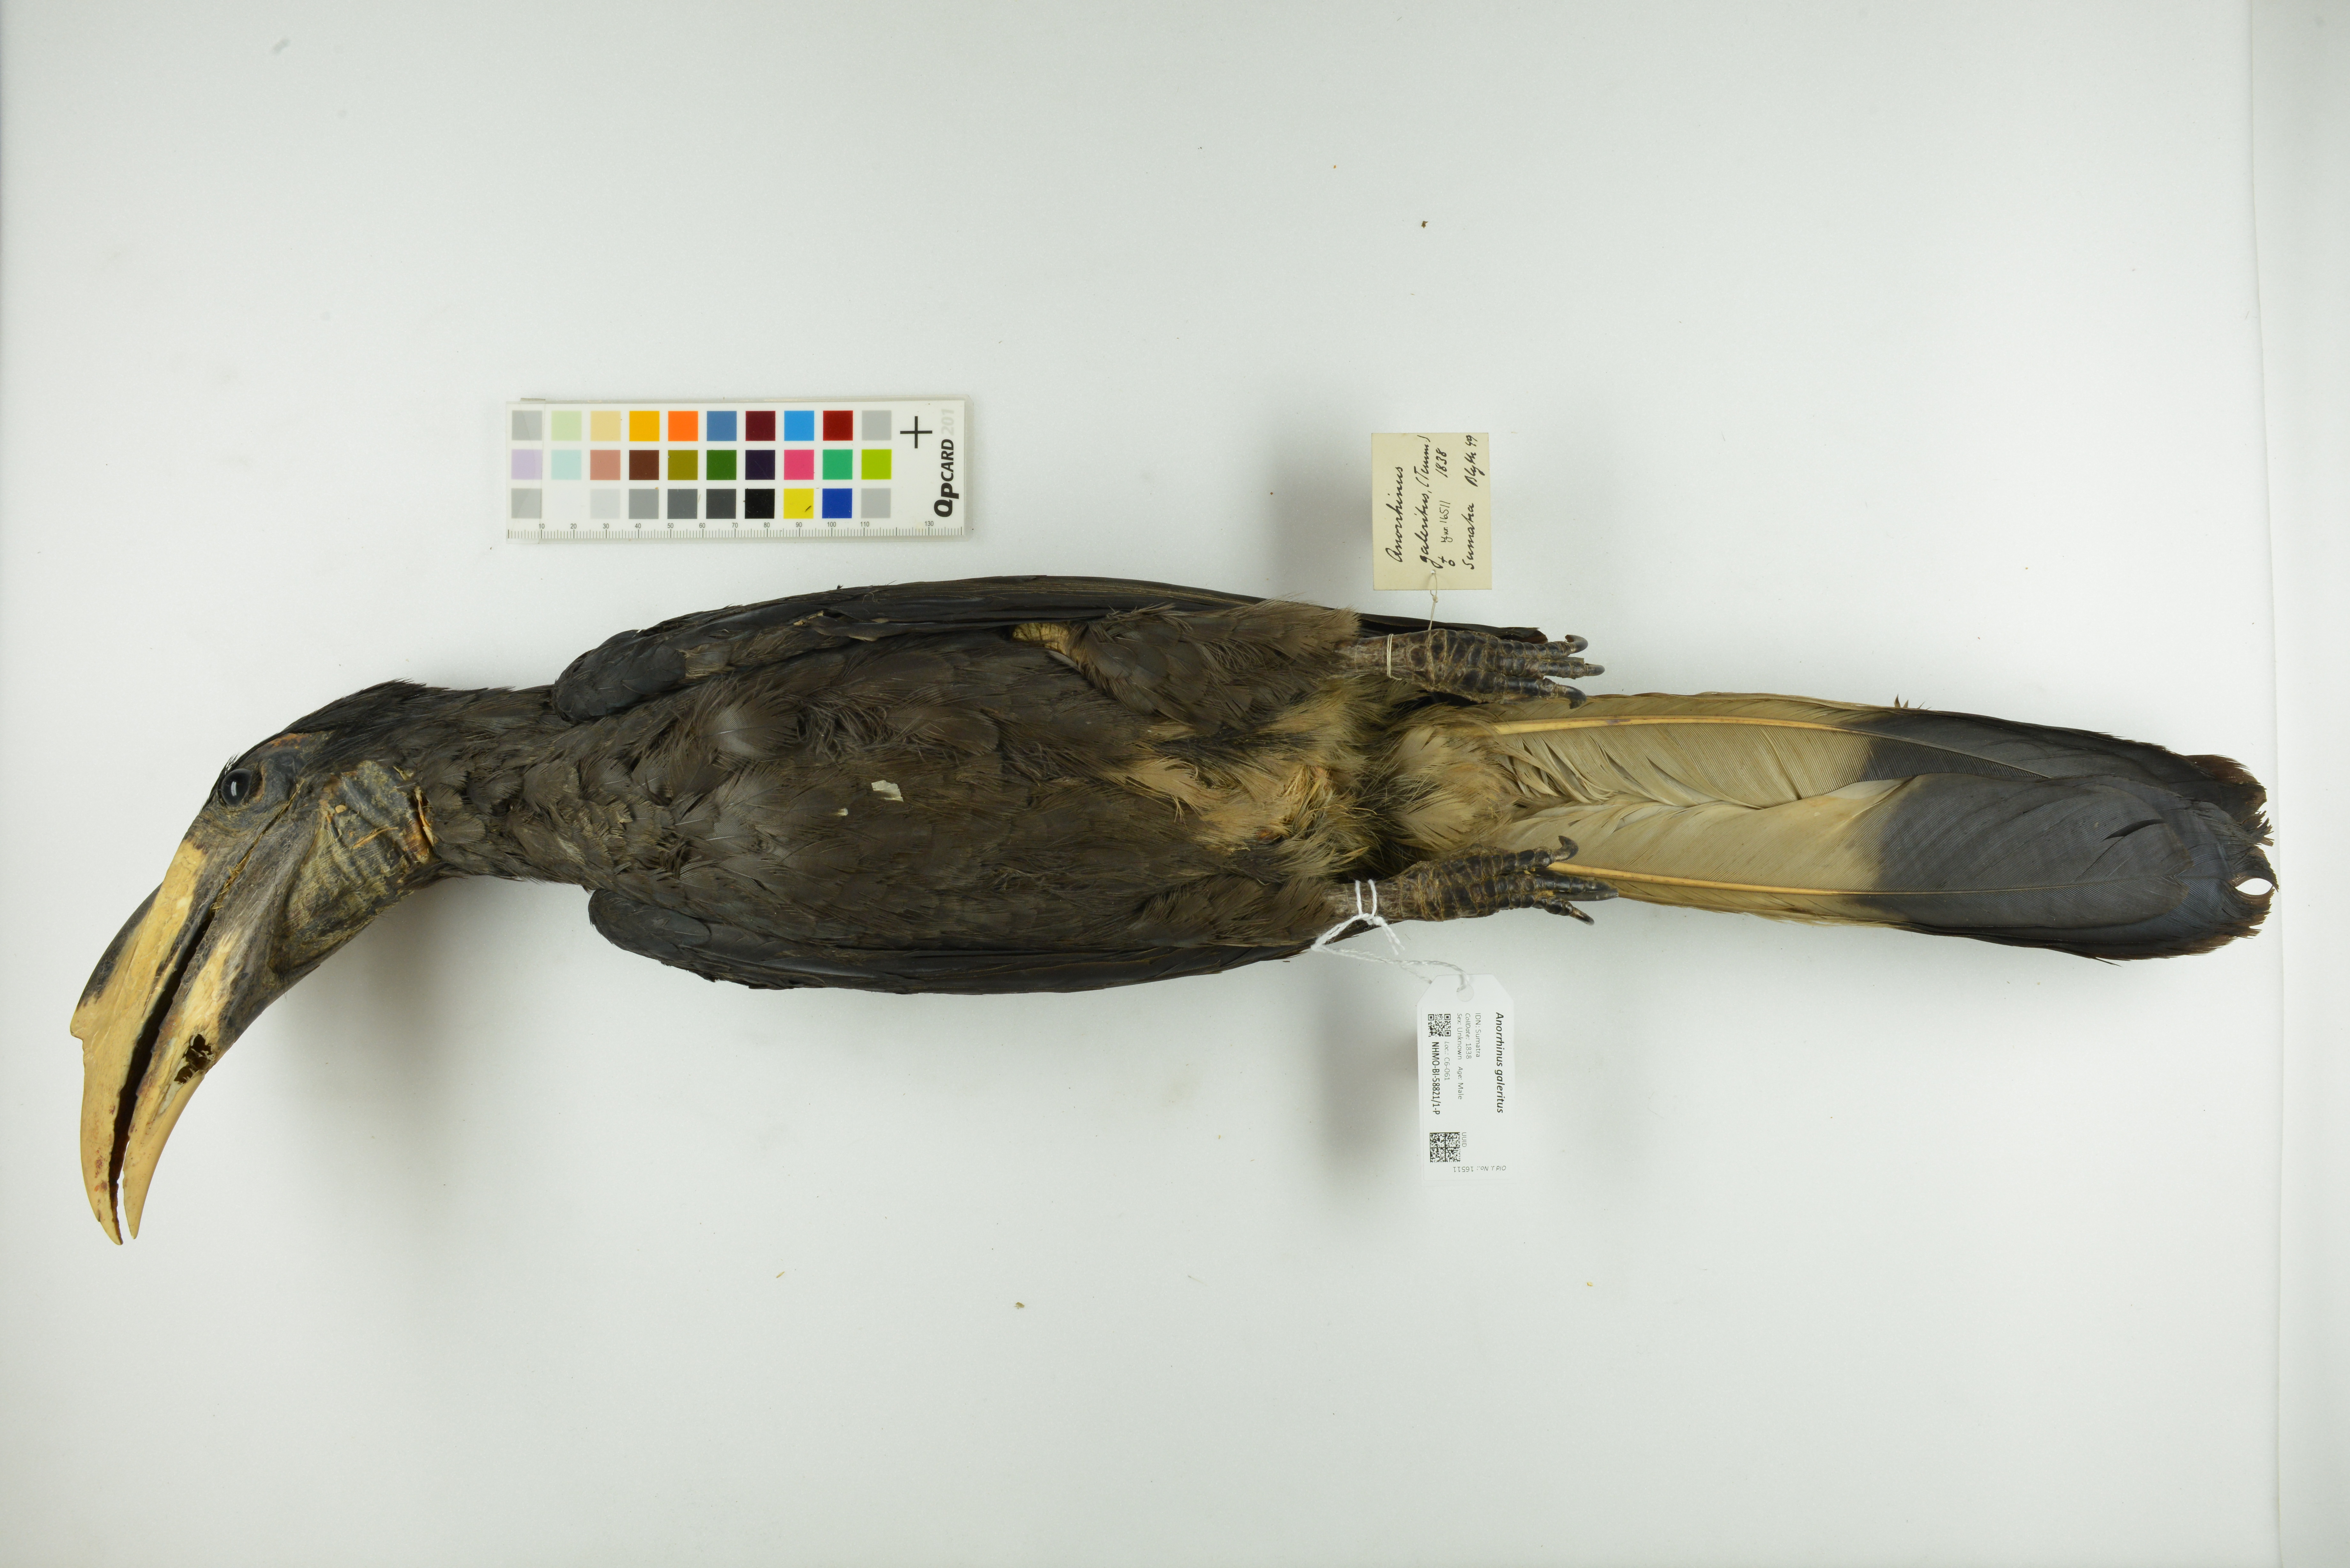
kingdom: Animalia
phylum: Chordata
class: Aves
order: Bucerotiformes
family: Bucerotidae
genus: Anorrhinus
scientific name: Anorrhinus galeritus
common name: Bushy-crested hornbill
